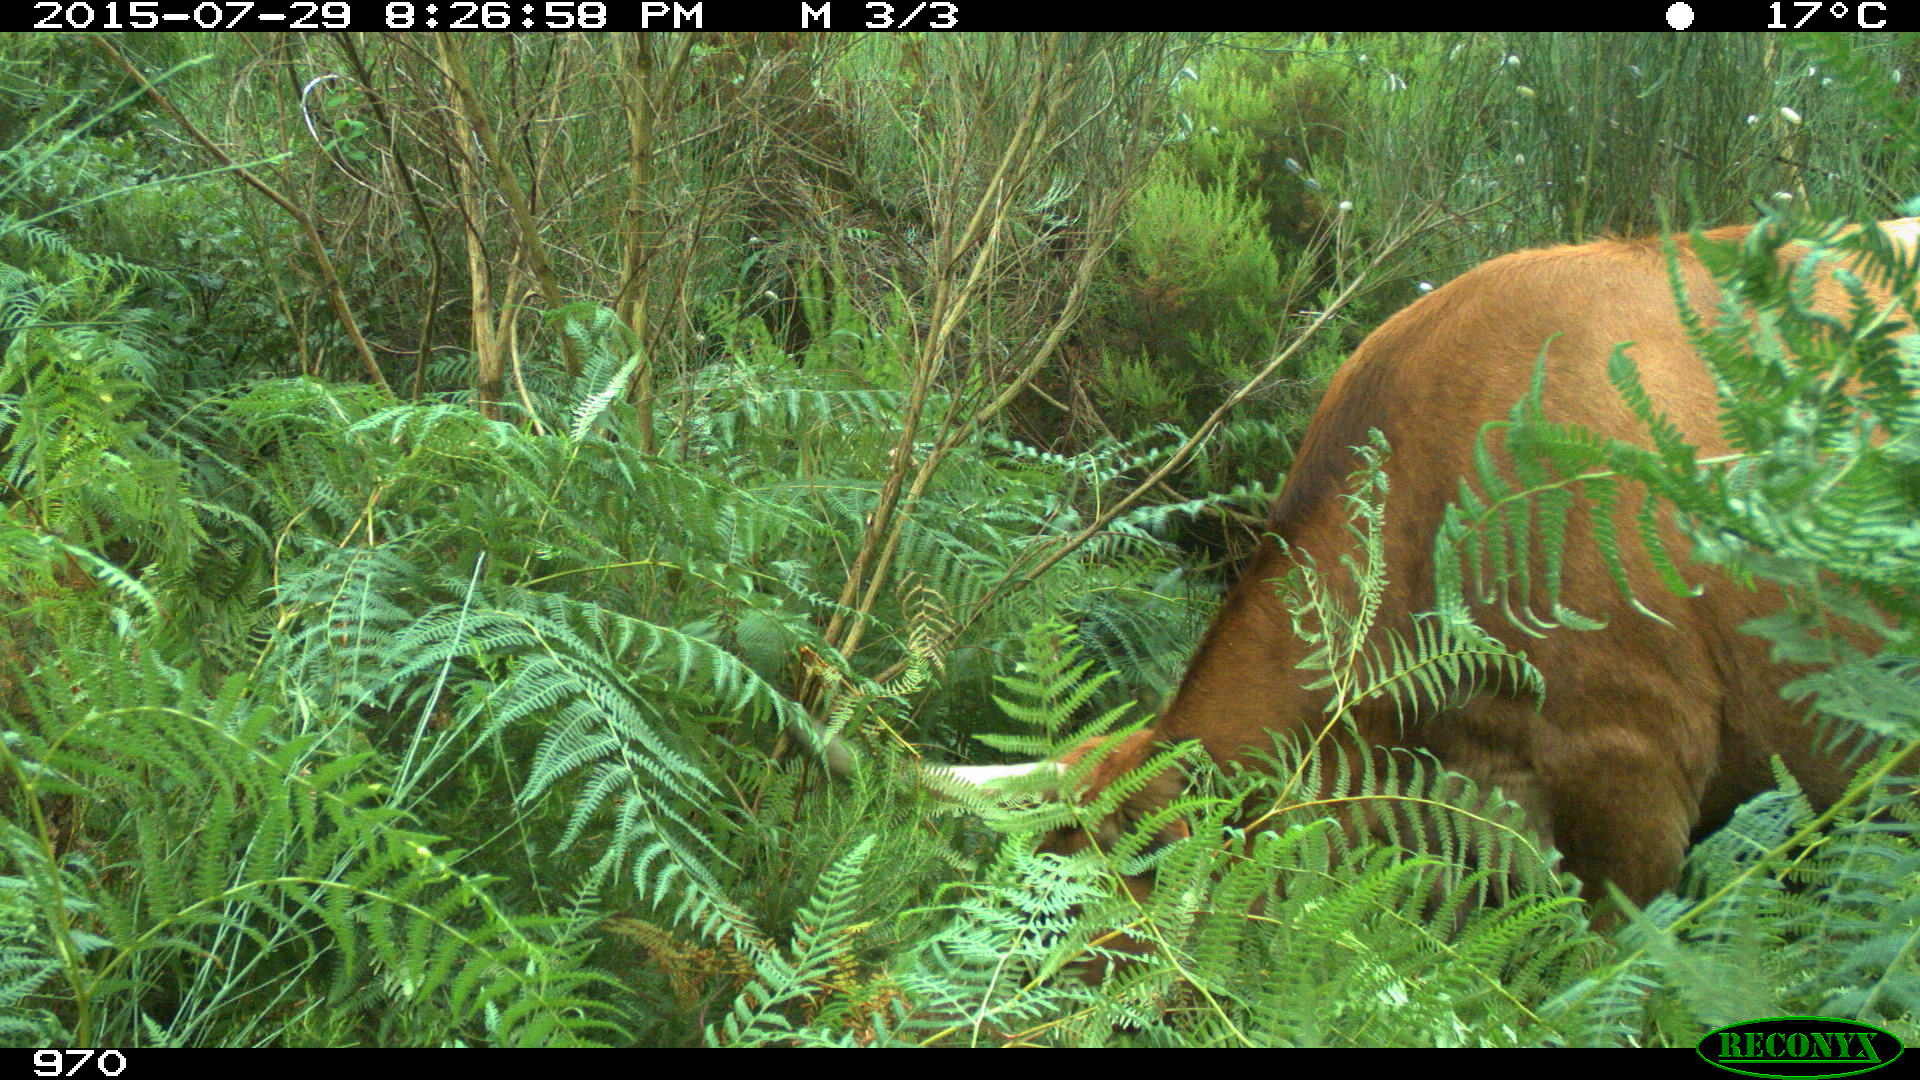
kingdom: Animalia
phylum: Chordata
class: Mammalia
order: Artiodactyla
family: Bovidae
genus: Bos
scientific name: Bos taurus
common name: Domesticated cattle
